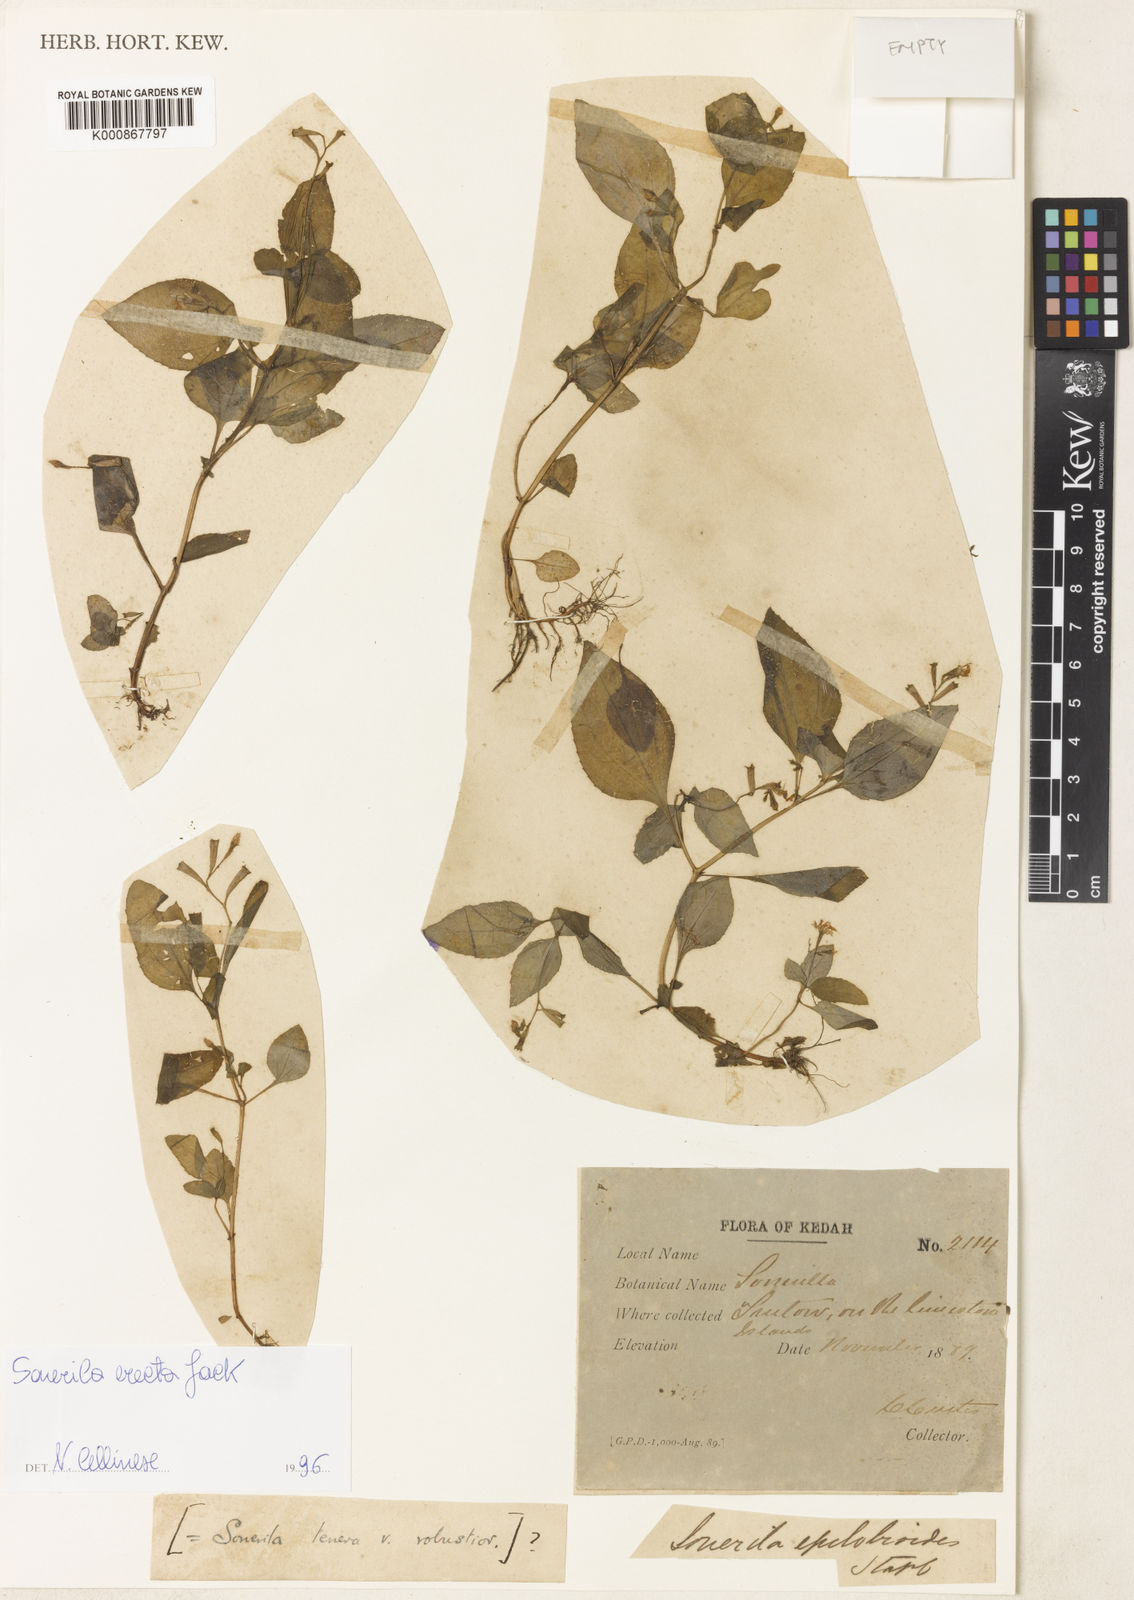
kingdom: Plantae
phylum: Tracheophyta
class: Magnoliopsida
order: Myrtales
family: Melastomataceae
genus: Sonerila
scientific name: Sonerila erecta
